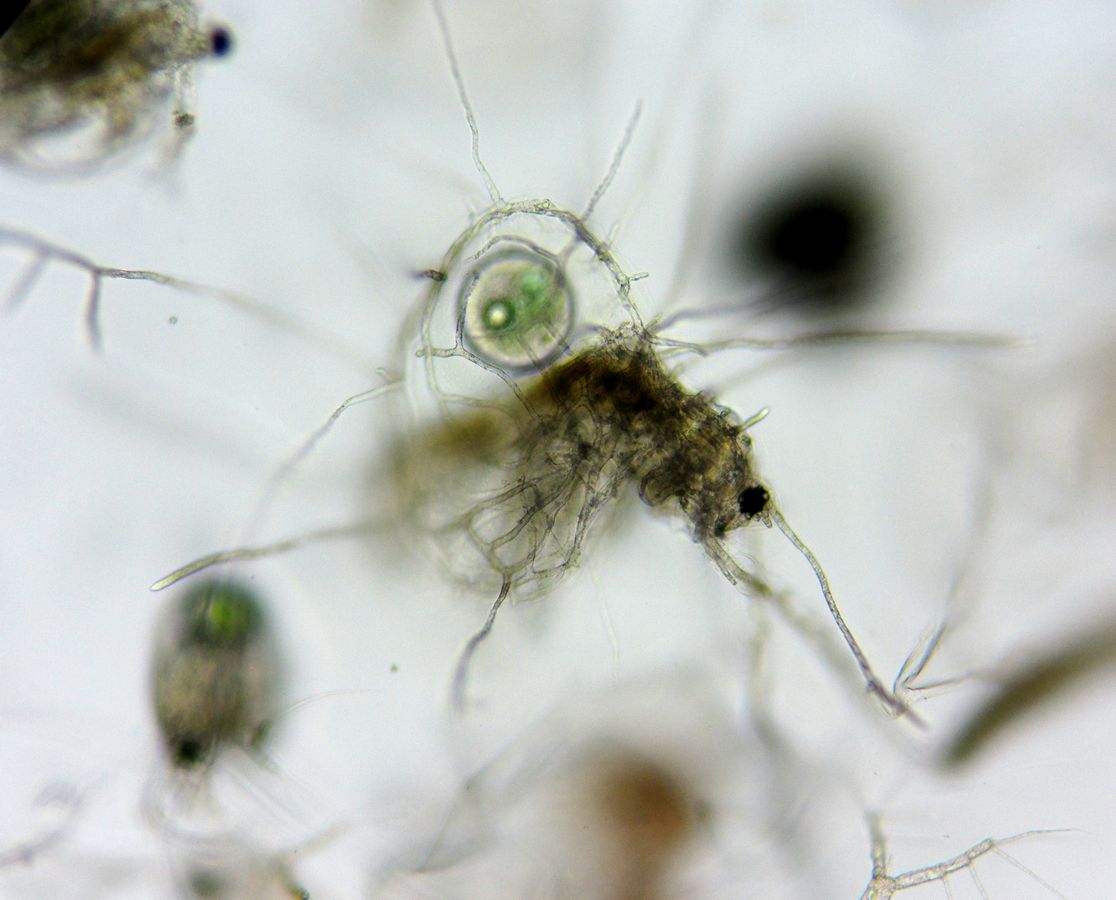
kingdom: Animalia
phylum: Arthropoda
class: Branchiopoda
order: Diplostraca
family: Holopediidae
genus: Holopedium
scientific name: Holopedium gibberum
